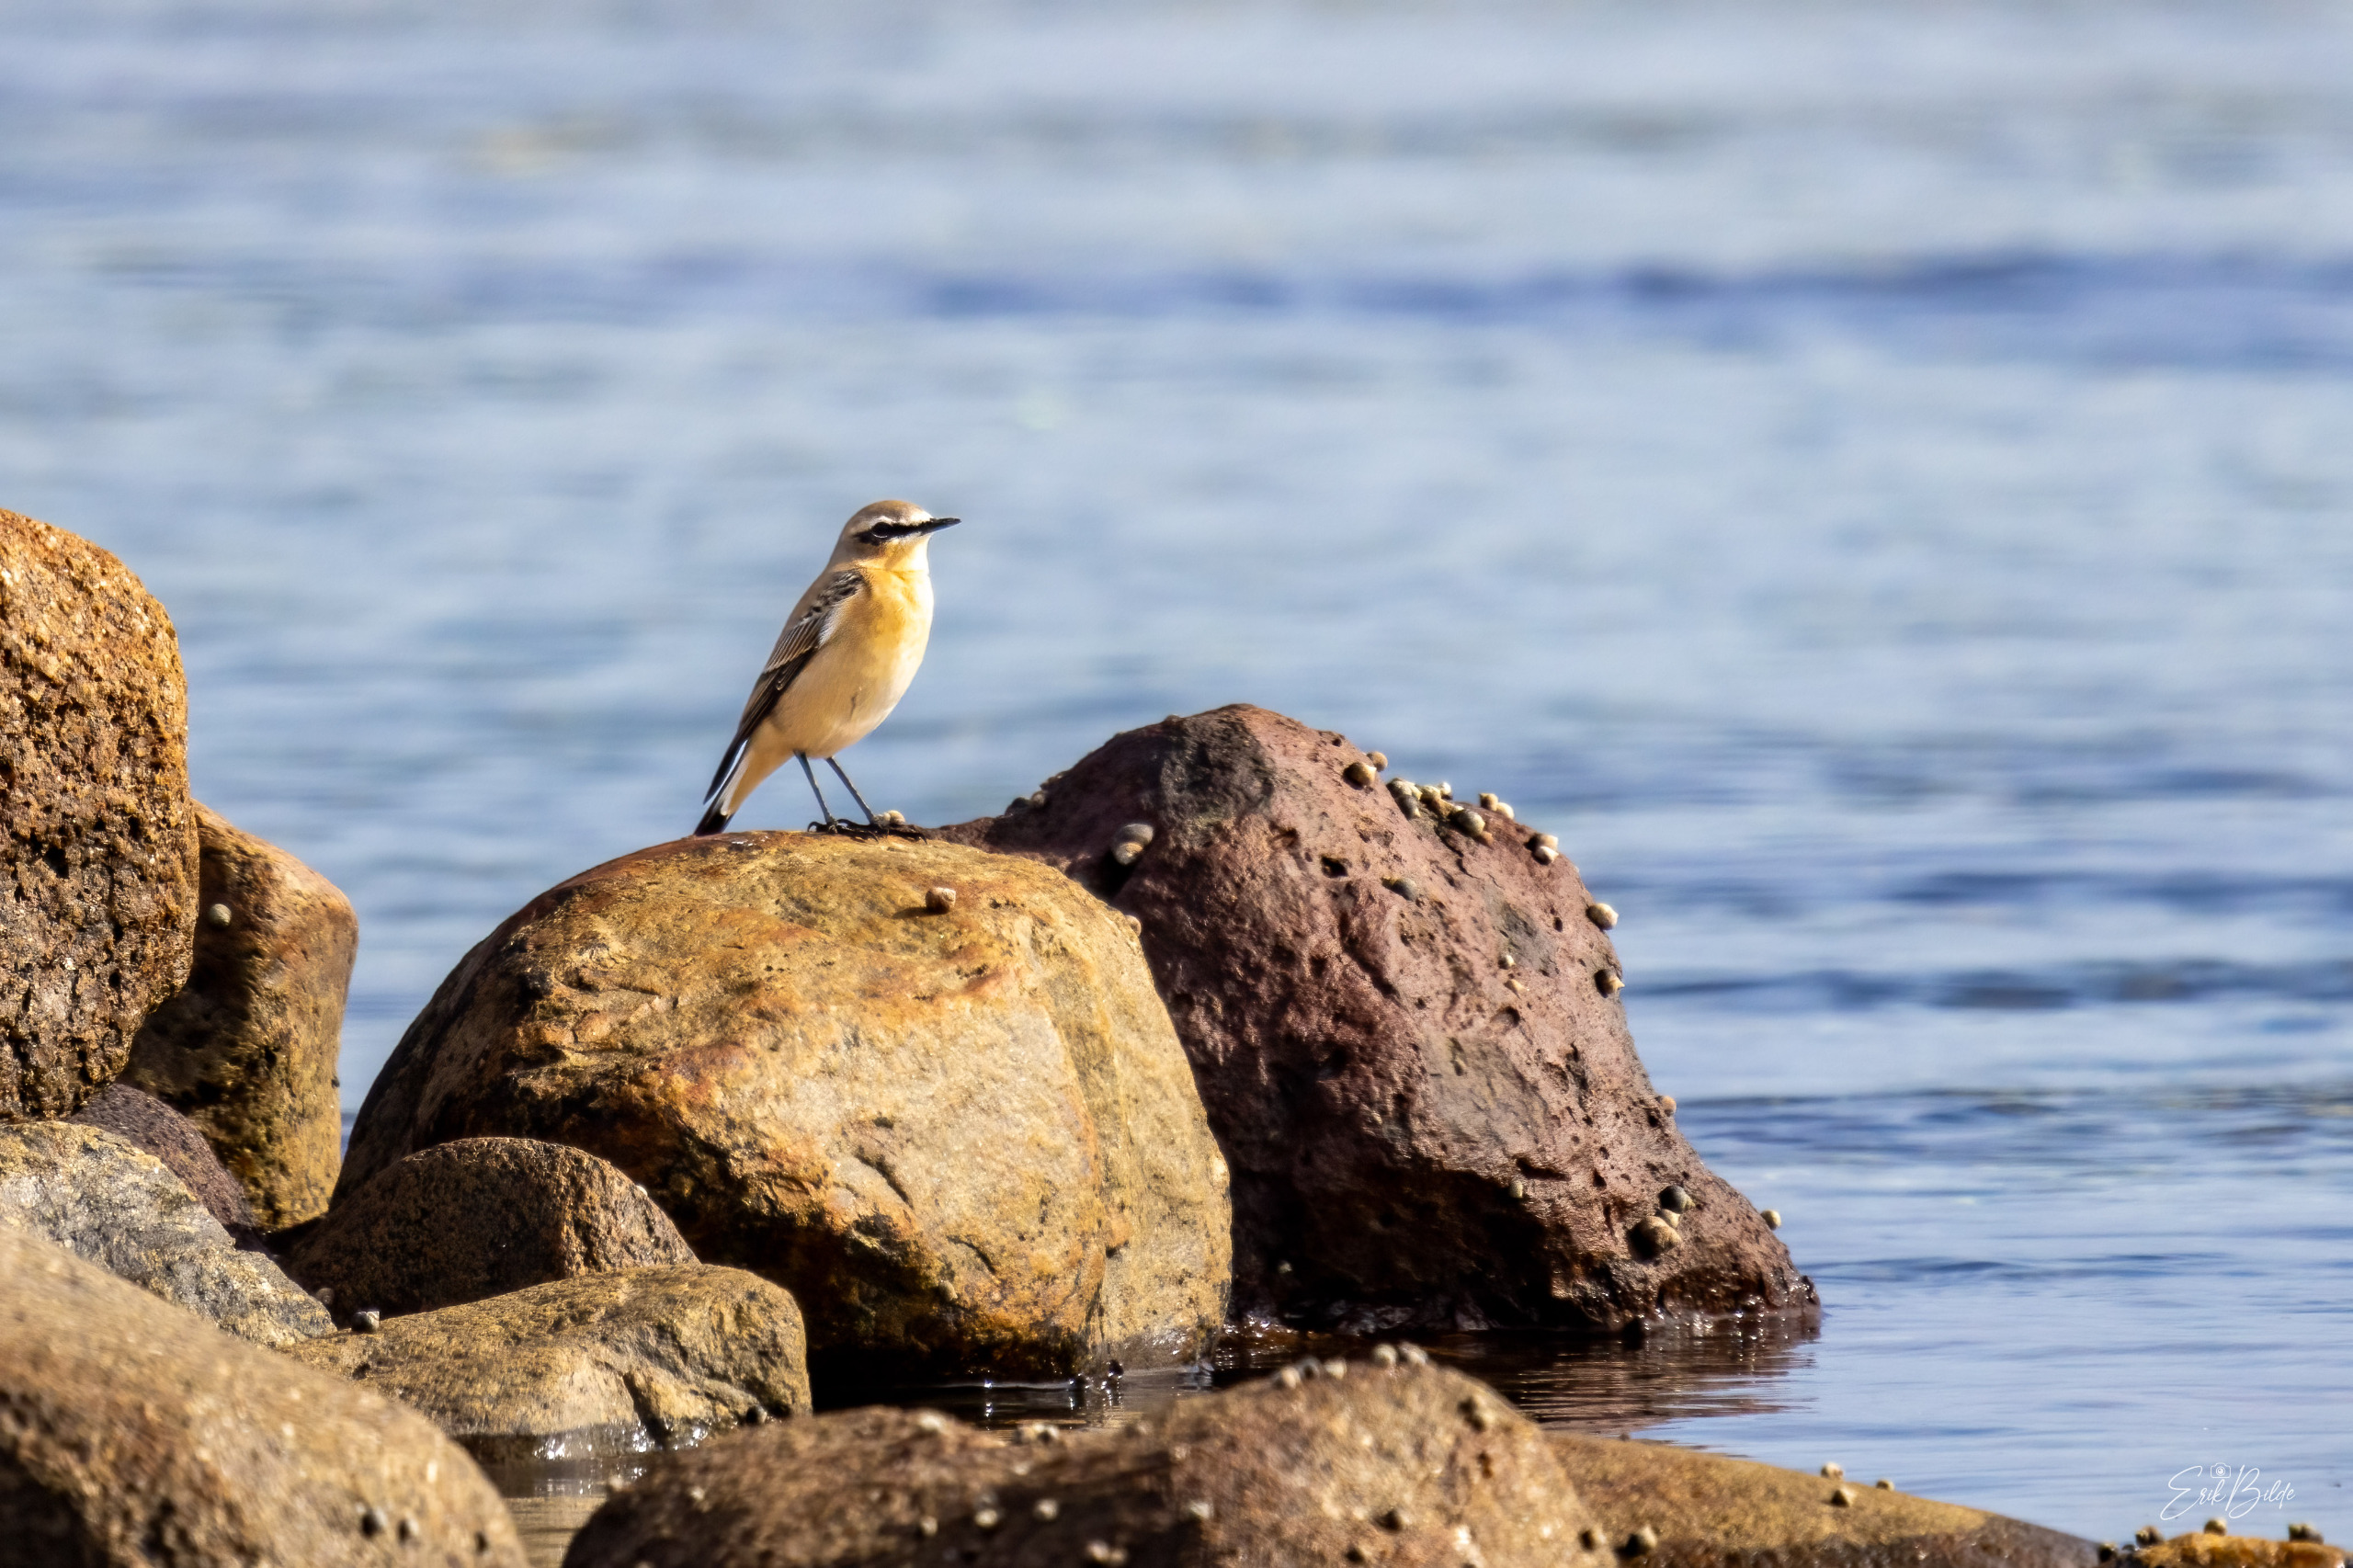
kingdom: Animalia
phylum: Chordata
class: Aves
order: Passeriformes
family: Muscicapidae
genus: Oenanthe
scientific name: Oenanthe oenanthe
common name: Stenpikker
